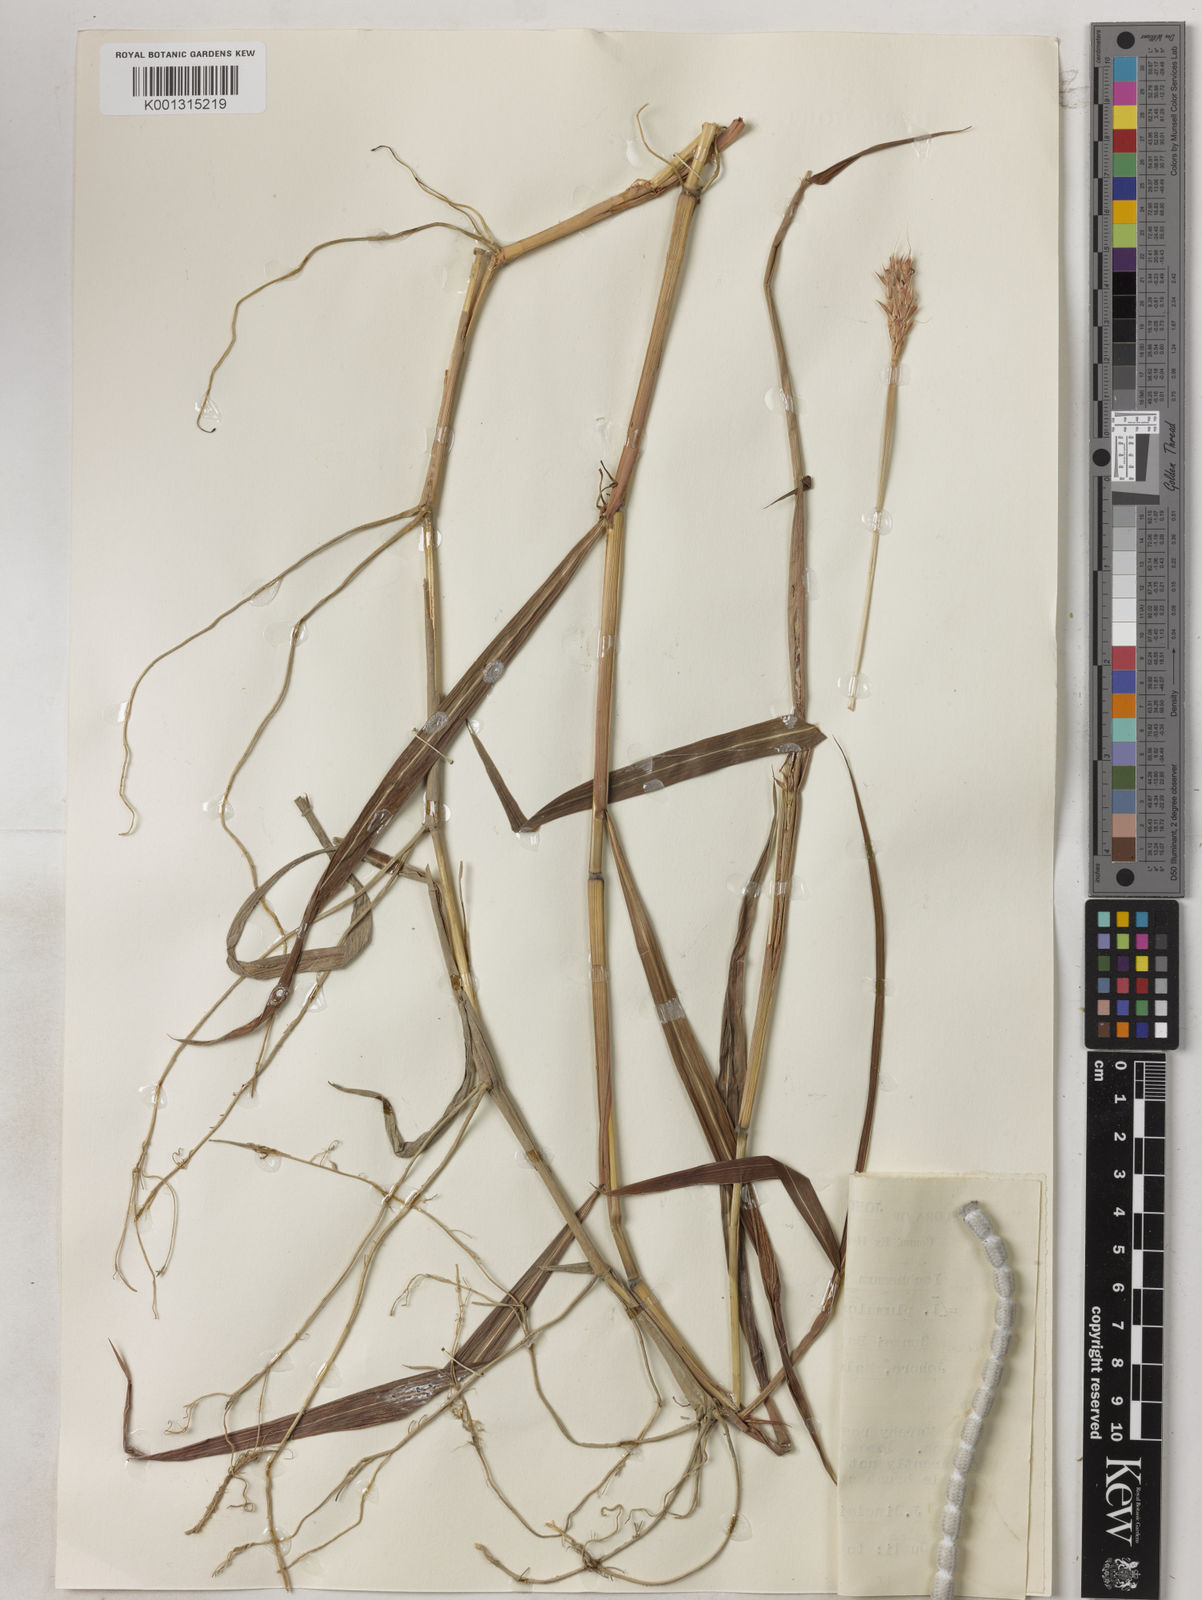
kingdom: Plantae
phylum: Tracheophyta
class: Liliopsida
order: Poales
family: Poaceae
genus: Ischaemum
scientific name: Ischaemum polystachyum
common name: Paddle grass
